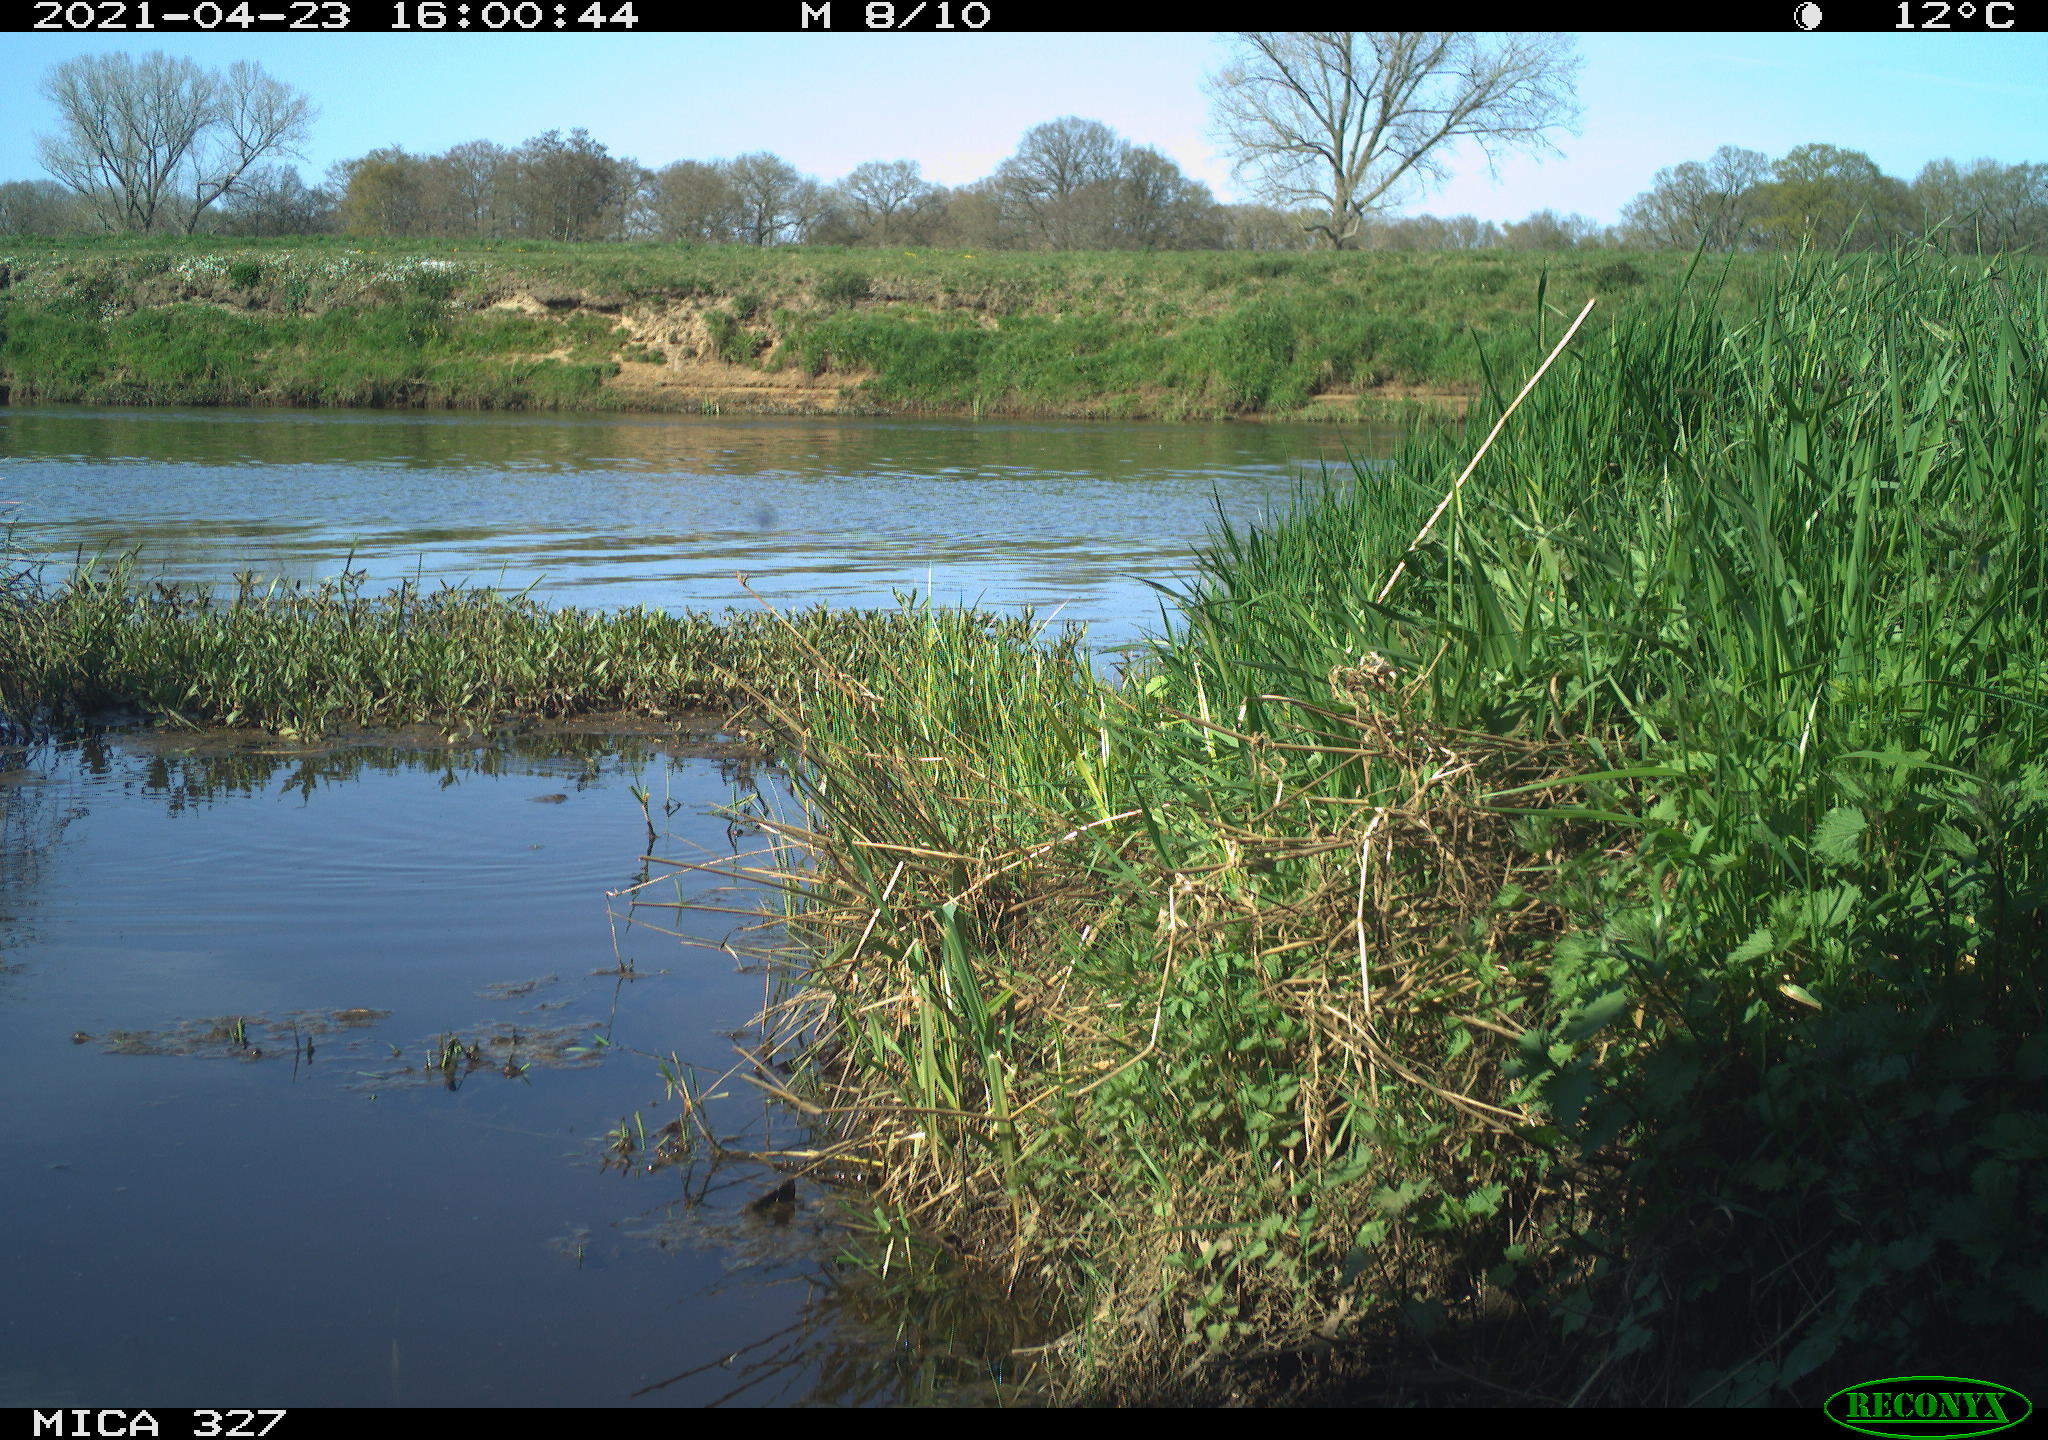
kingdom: Animalia
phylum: Chordata
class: Aves
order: Gruiformes
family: Rallidae
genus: Gallinula
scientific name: Gallinula chloropus
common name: Common moorhen
